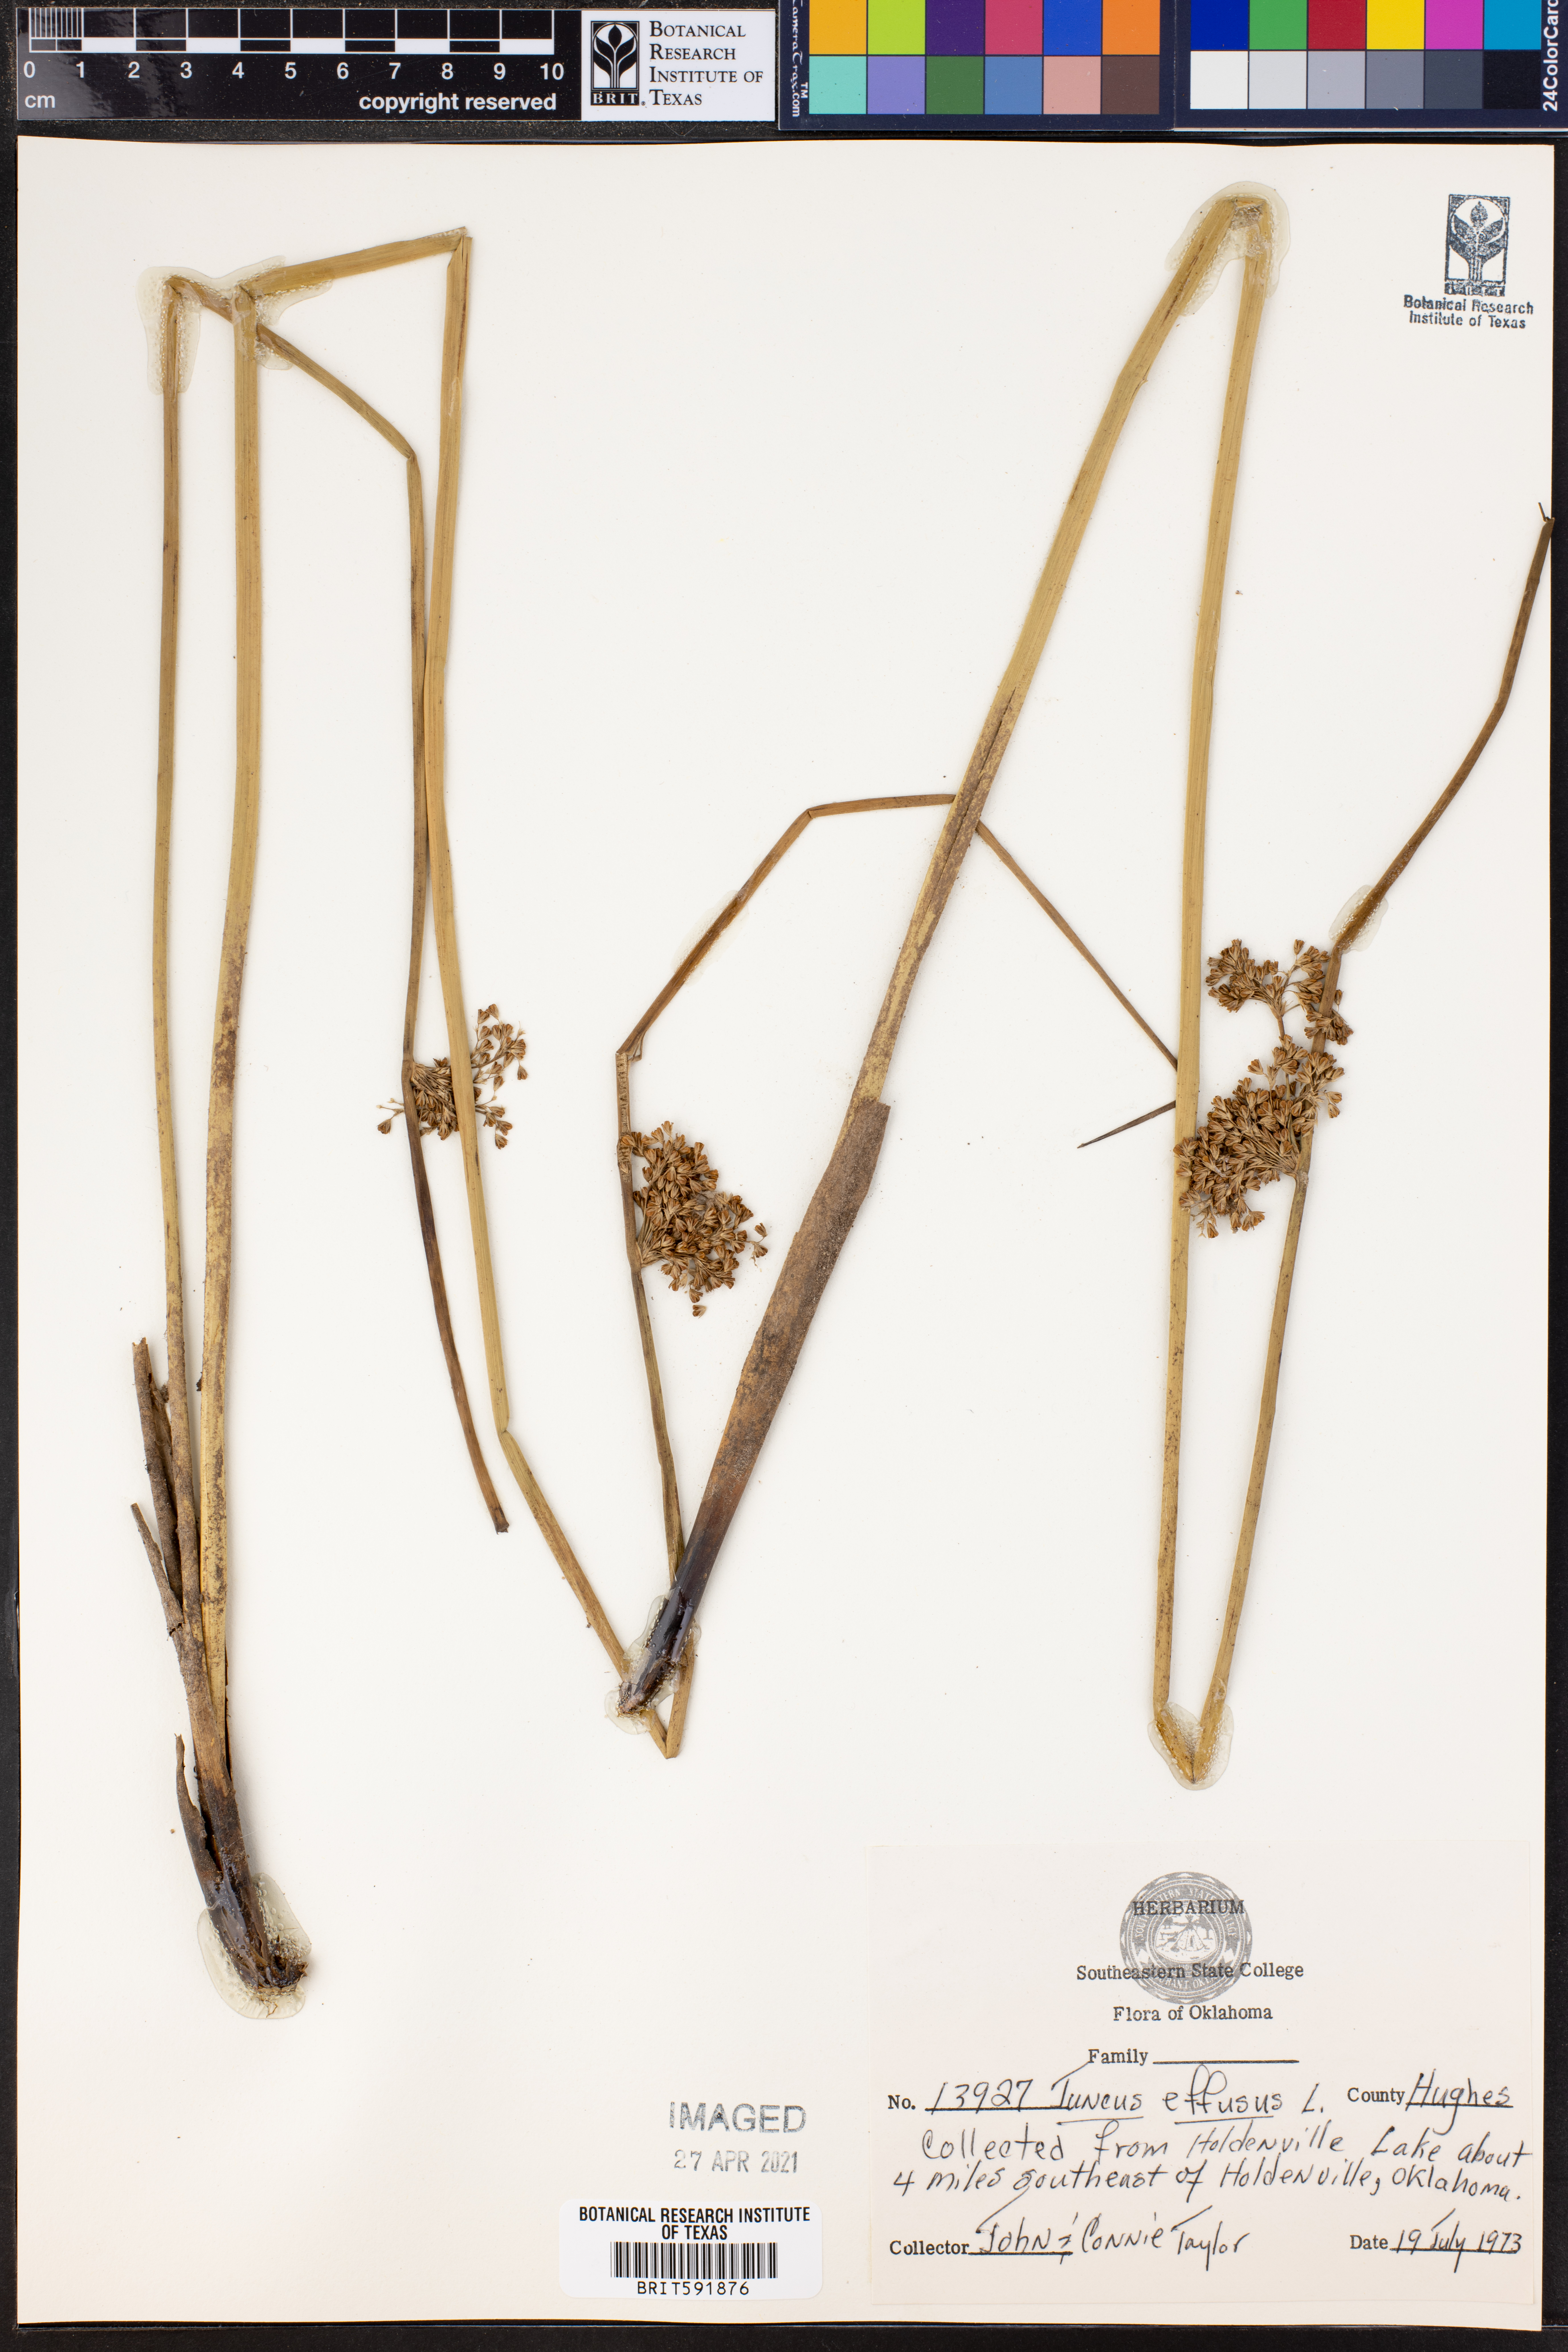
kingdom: Plantae
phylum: Tracheophyta
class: Liliopsida
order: Poales
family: Juncaceae
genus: Juncus
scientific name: Juncus effusus
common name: Soft rush
